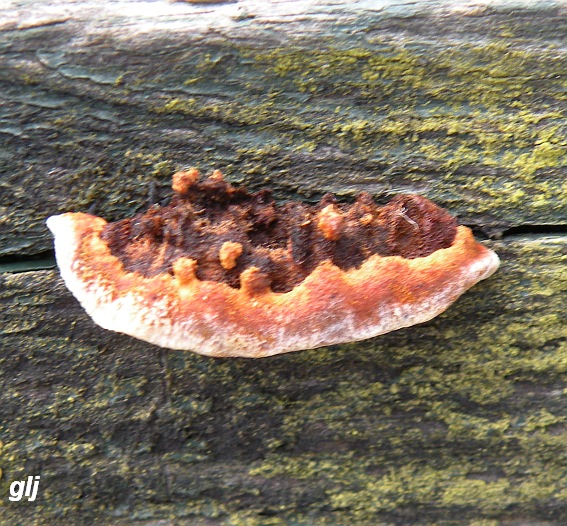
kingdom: Fungi
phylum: Basidiomycota
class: Agaricomycetes
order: Gloeophyllales
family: Gloeophyllaceae
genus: Gloeophyllum
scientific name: Gloeophyllum sepiarium
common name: fyrre-korkhat
